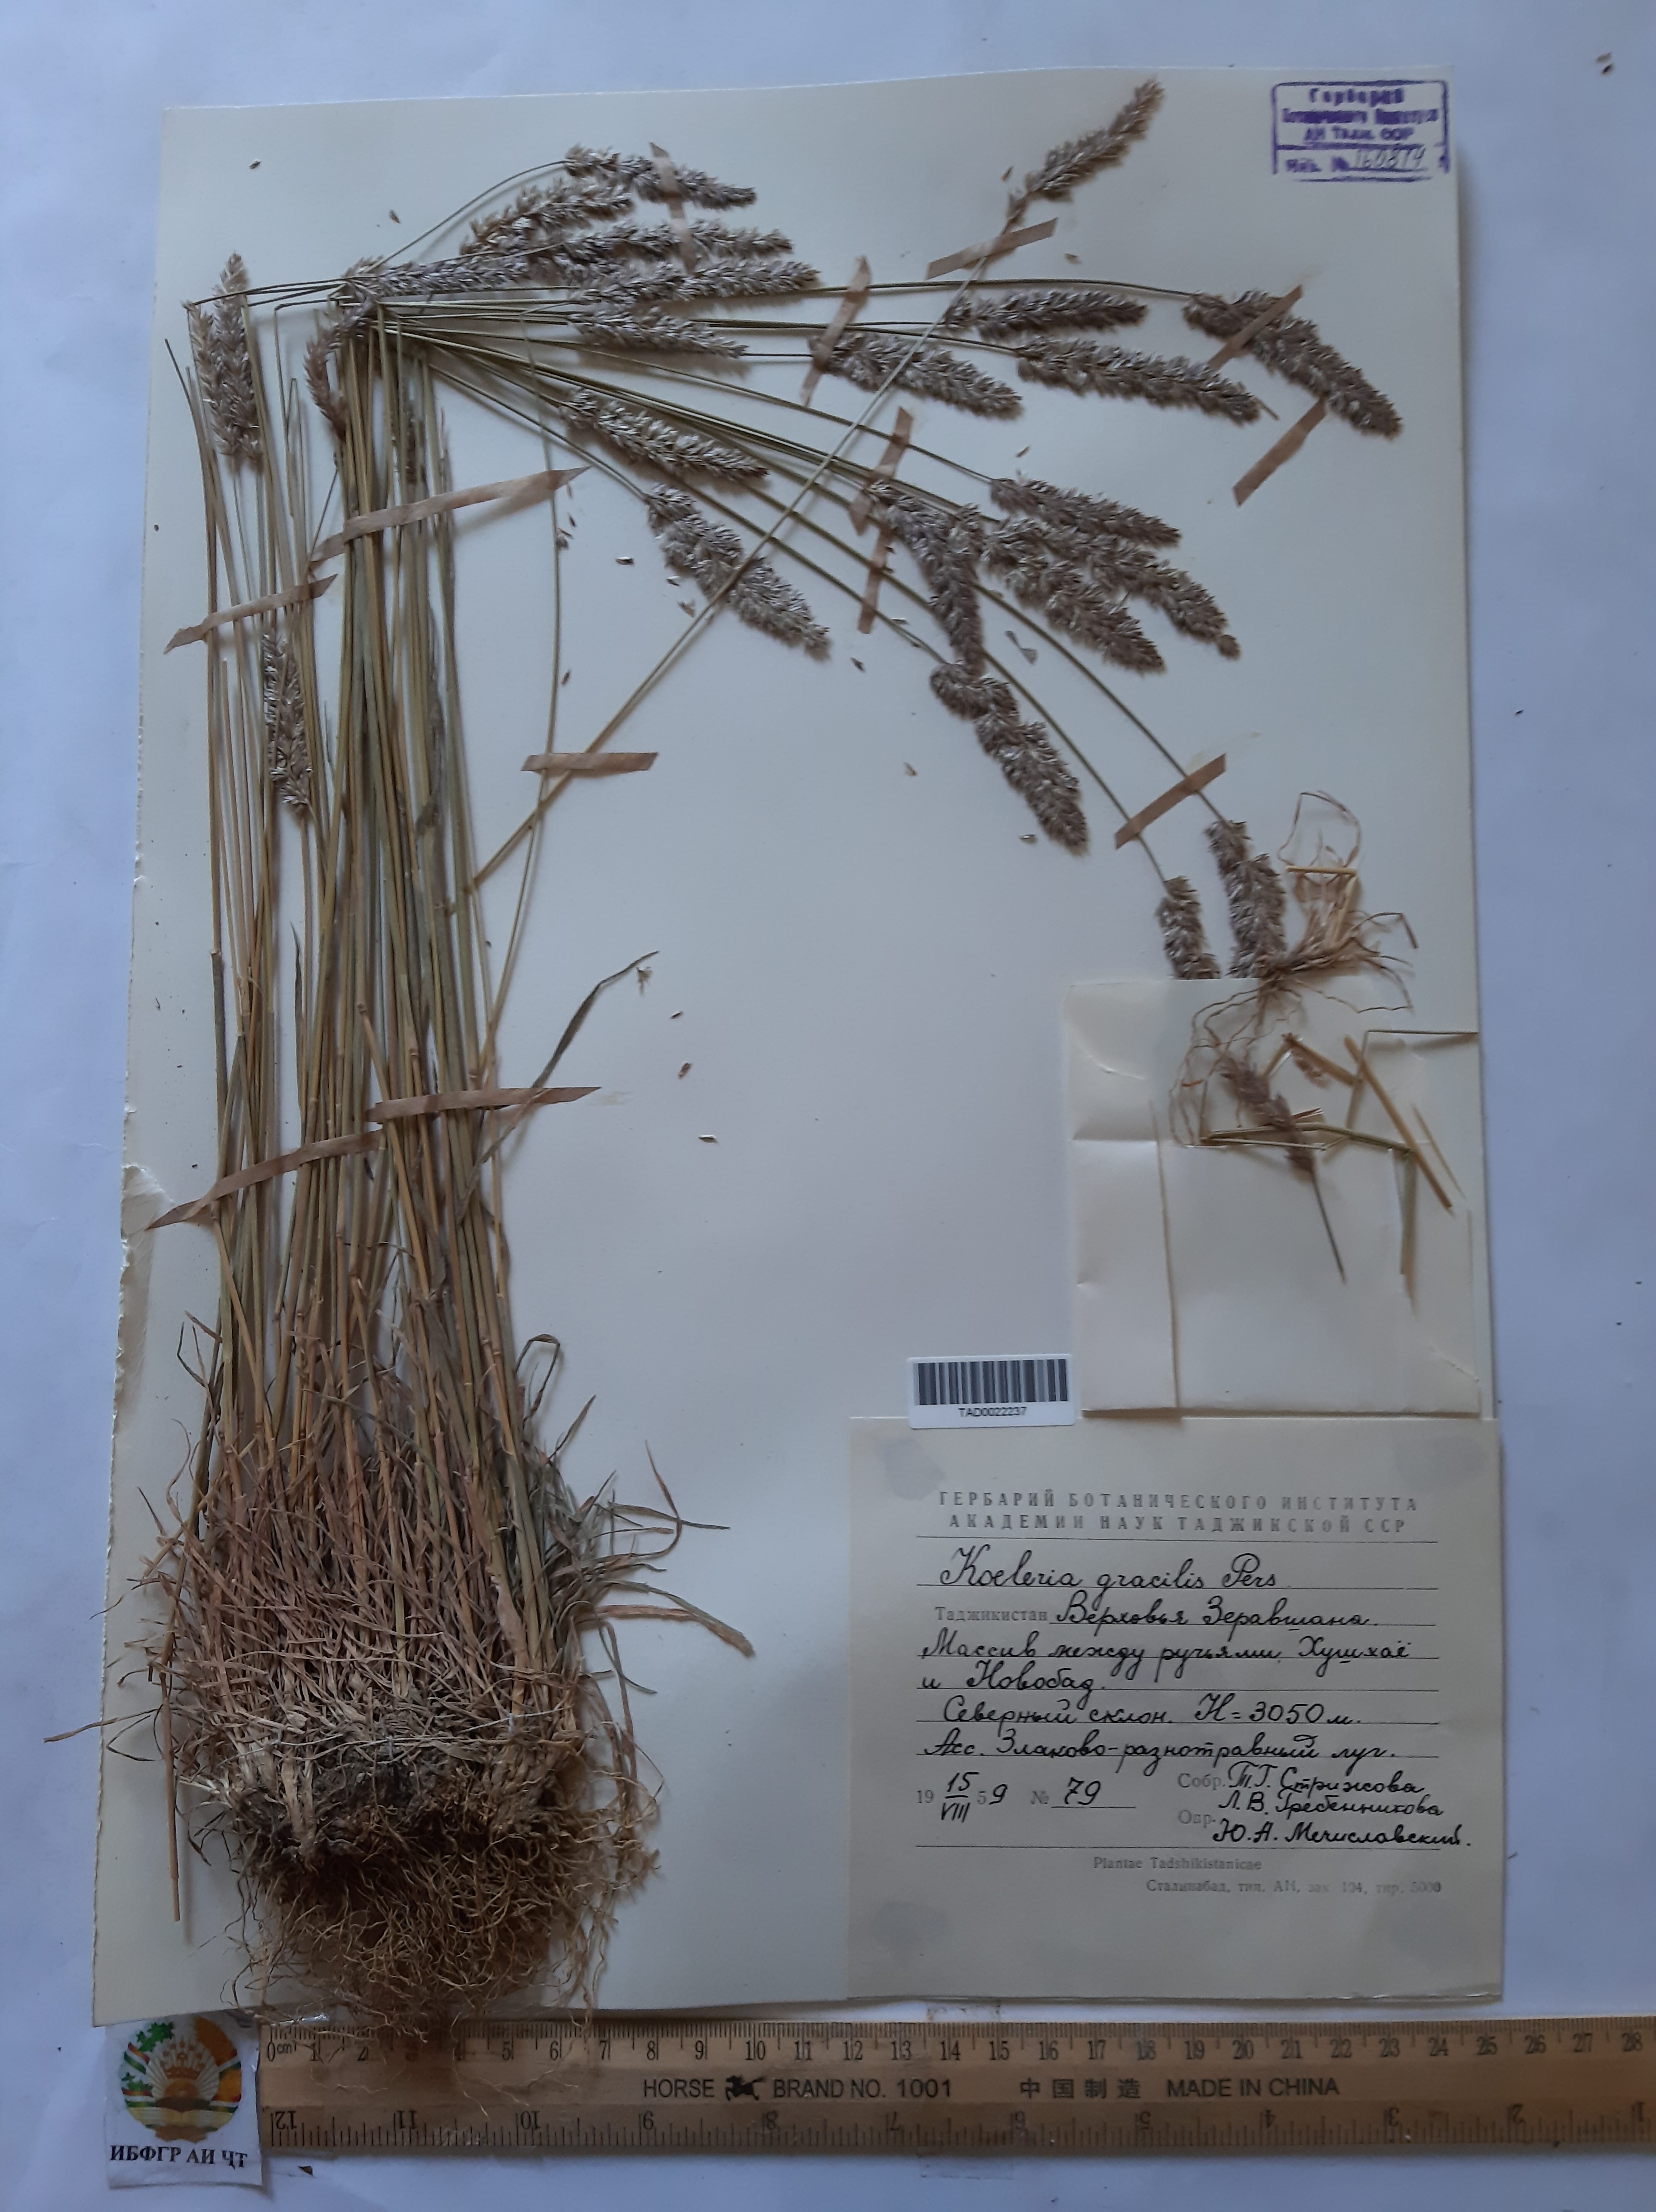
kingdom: Plantae
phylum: Tracheophyta
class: Liliopsida
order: Poales
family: Poaceae
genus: Koeleria
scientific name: Koeleria macrantha
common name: Crested hair-grass
